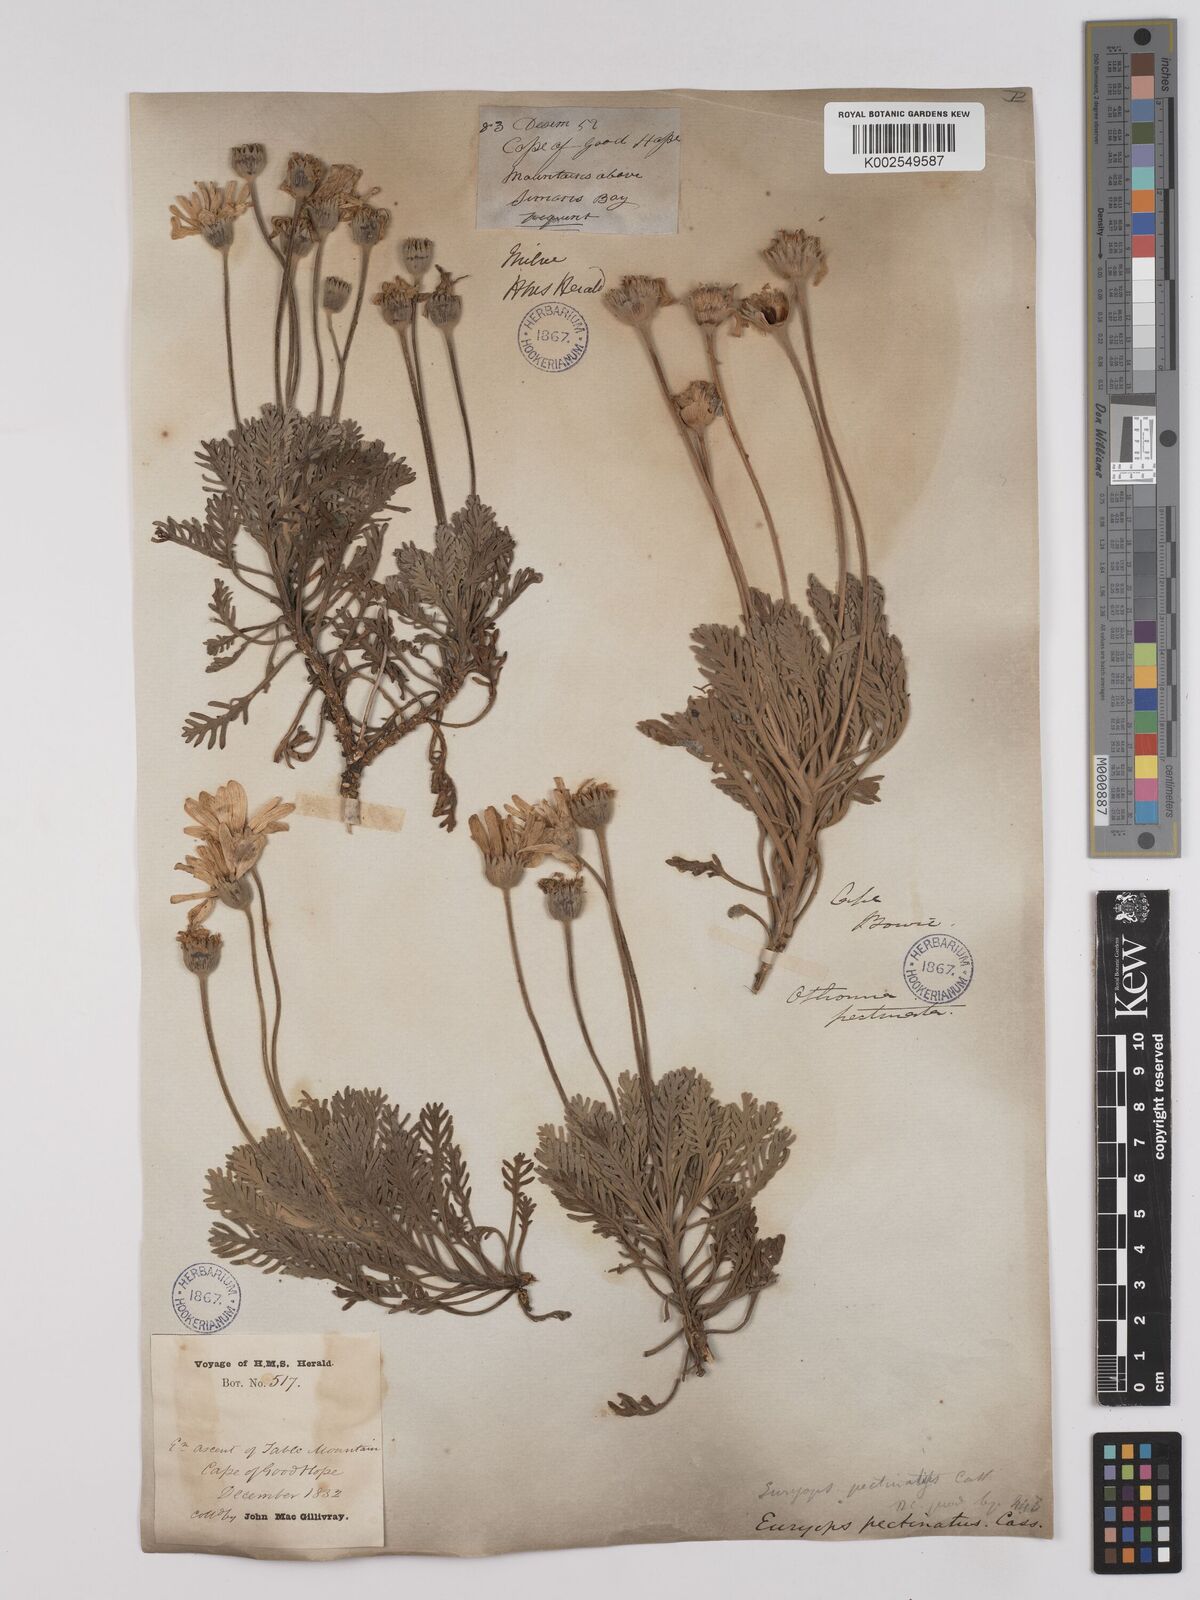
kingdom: Plantae
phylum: Tracheophyta
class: Magnoliopsida
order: Asterales
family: Asteraceae
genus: Euryops
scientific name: Euryops pectinatus
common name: Gray-leaf euryops
